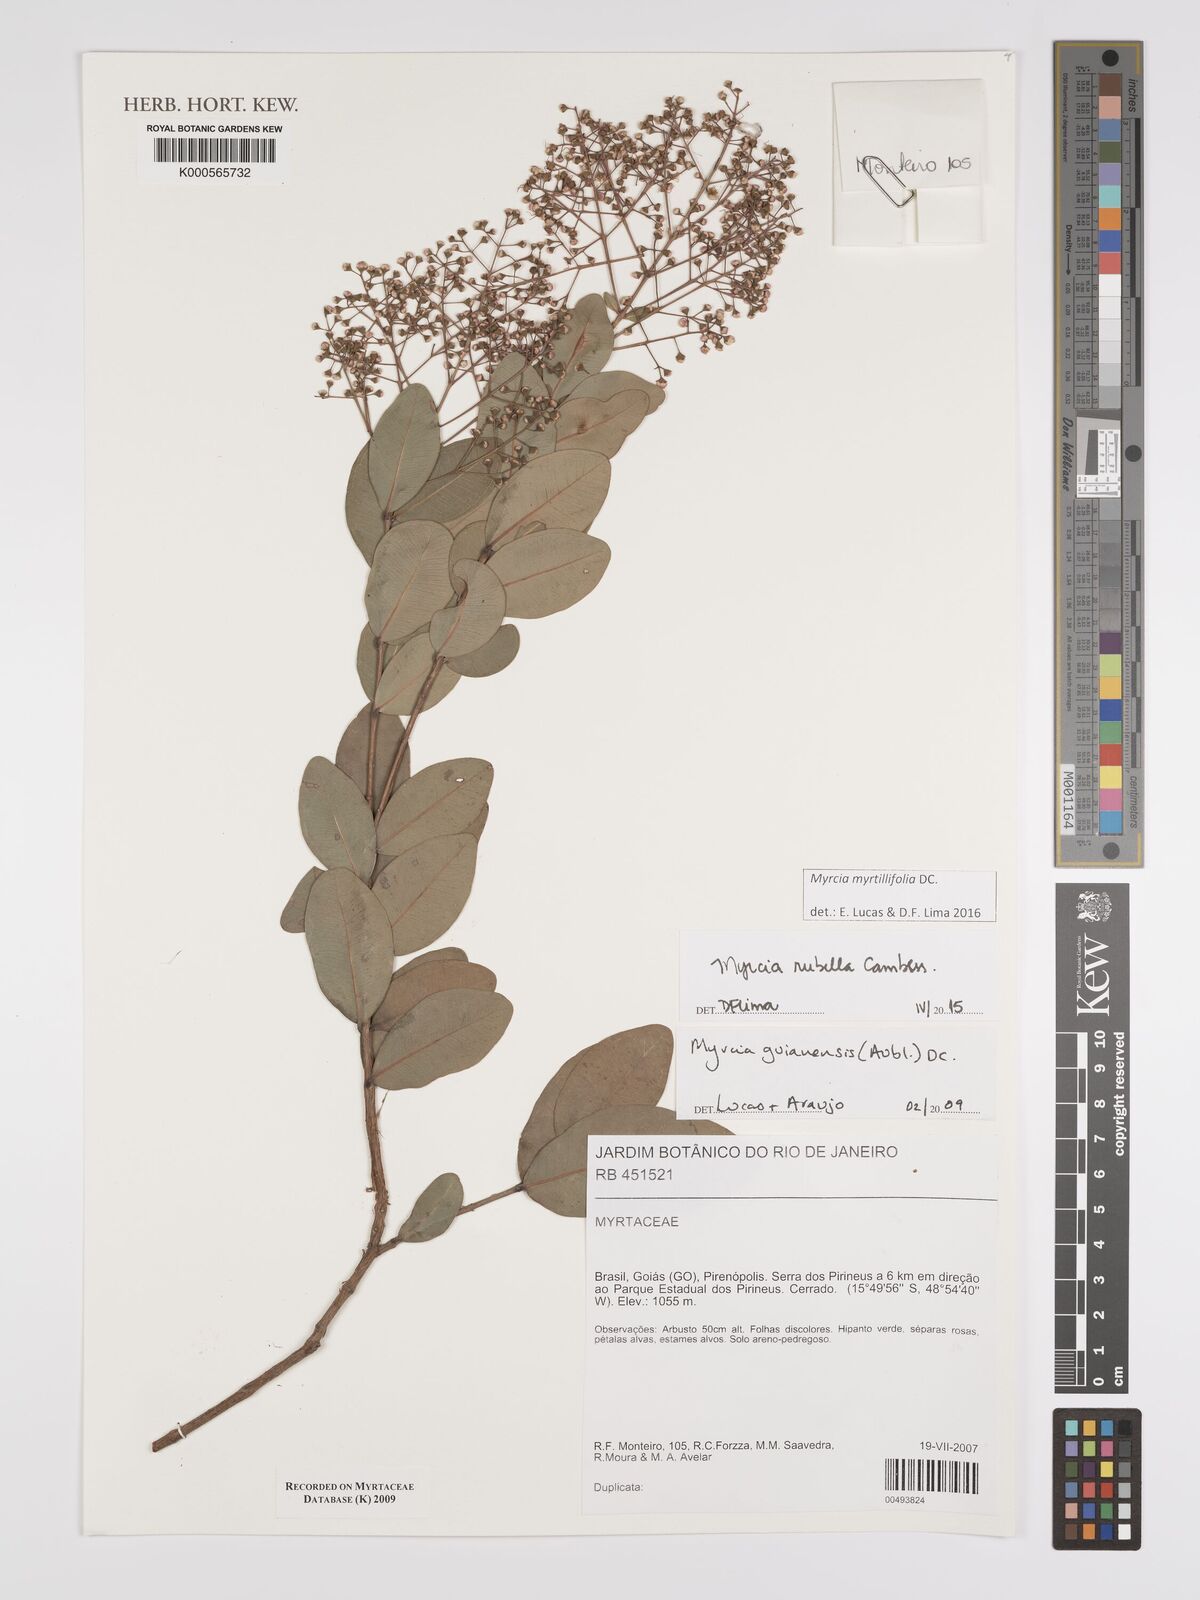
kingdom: Plantae
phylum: Tracheophyta
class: Magnoliopsida
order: Myrtales
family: Myrtaceae
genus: Myrcia
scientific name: Myrcia guianensis
